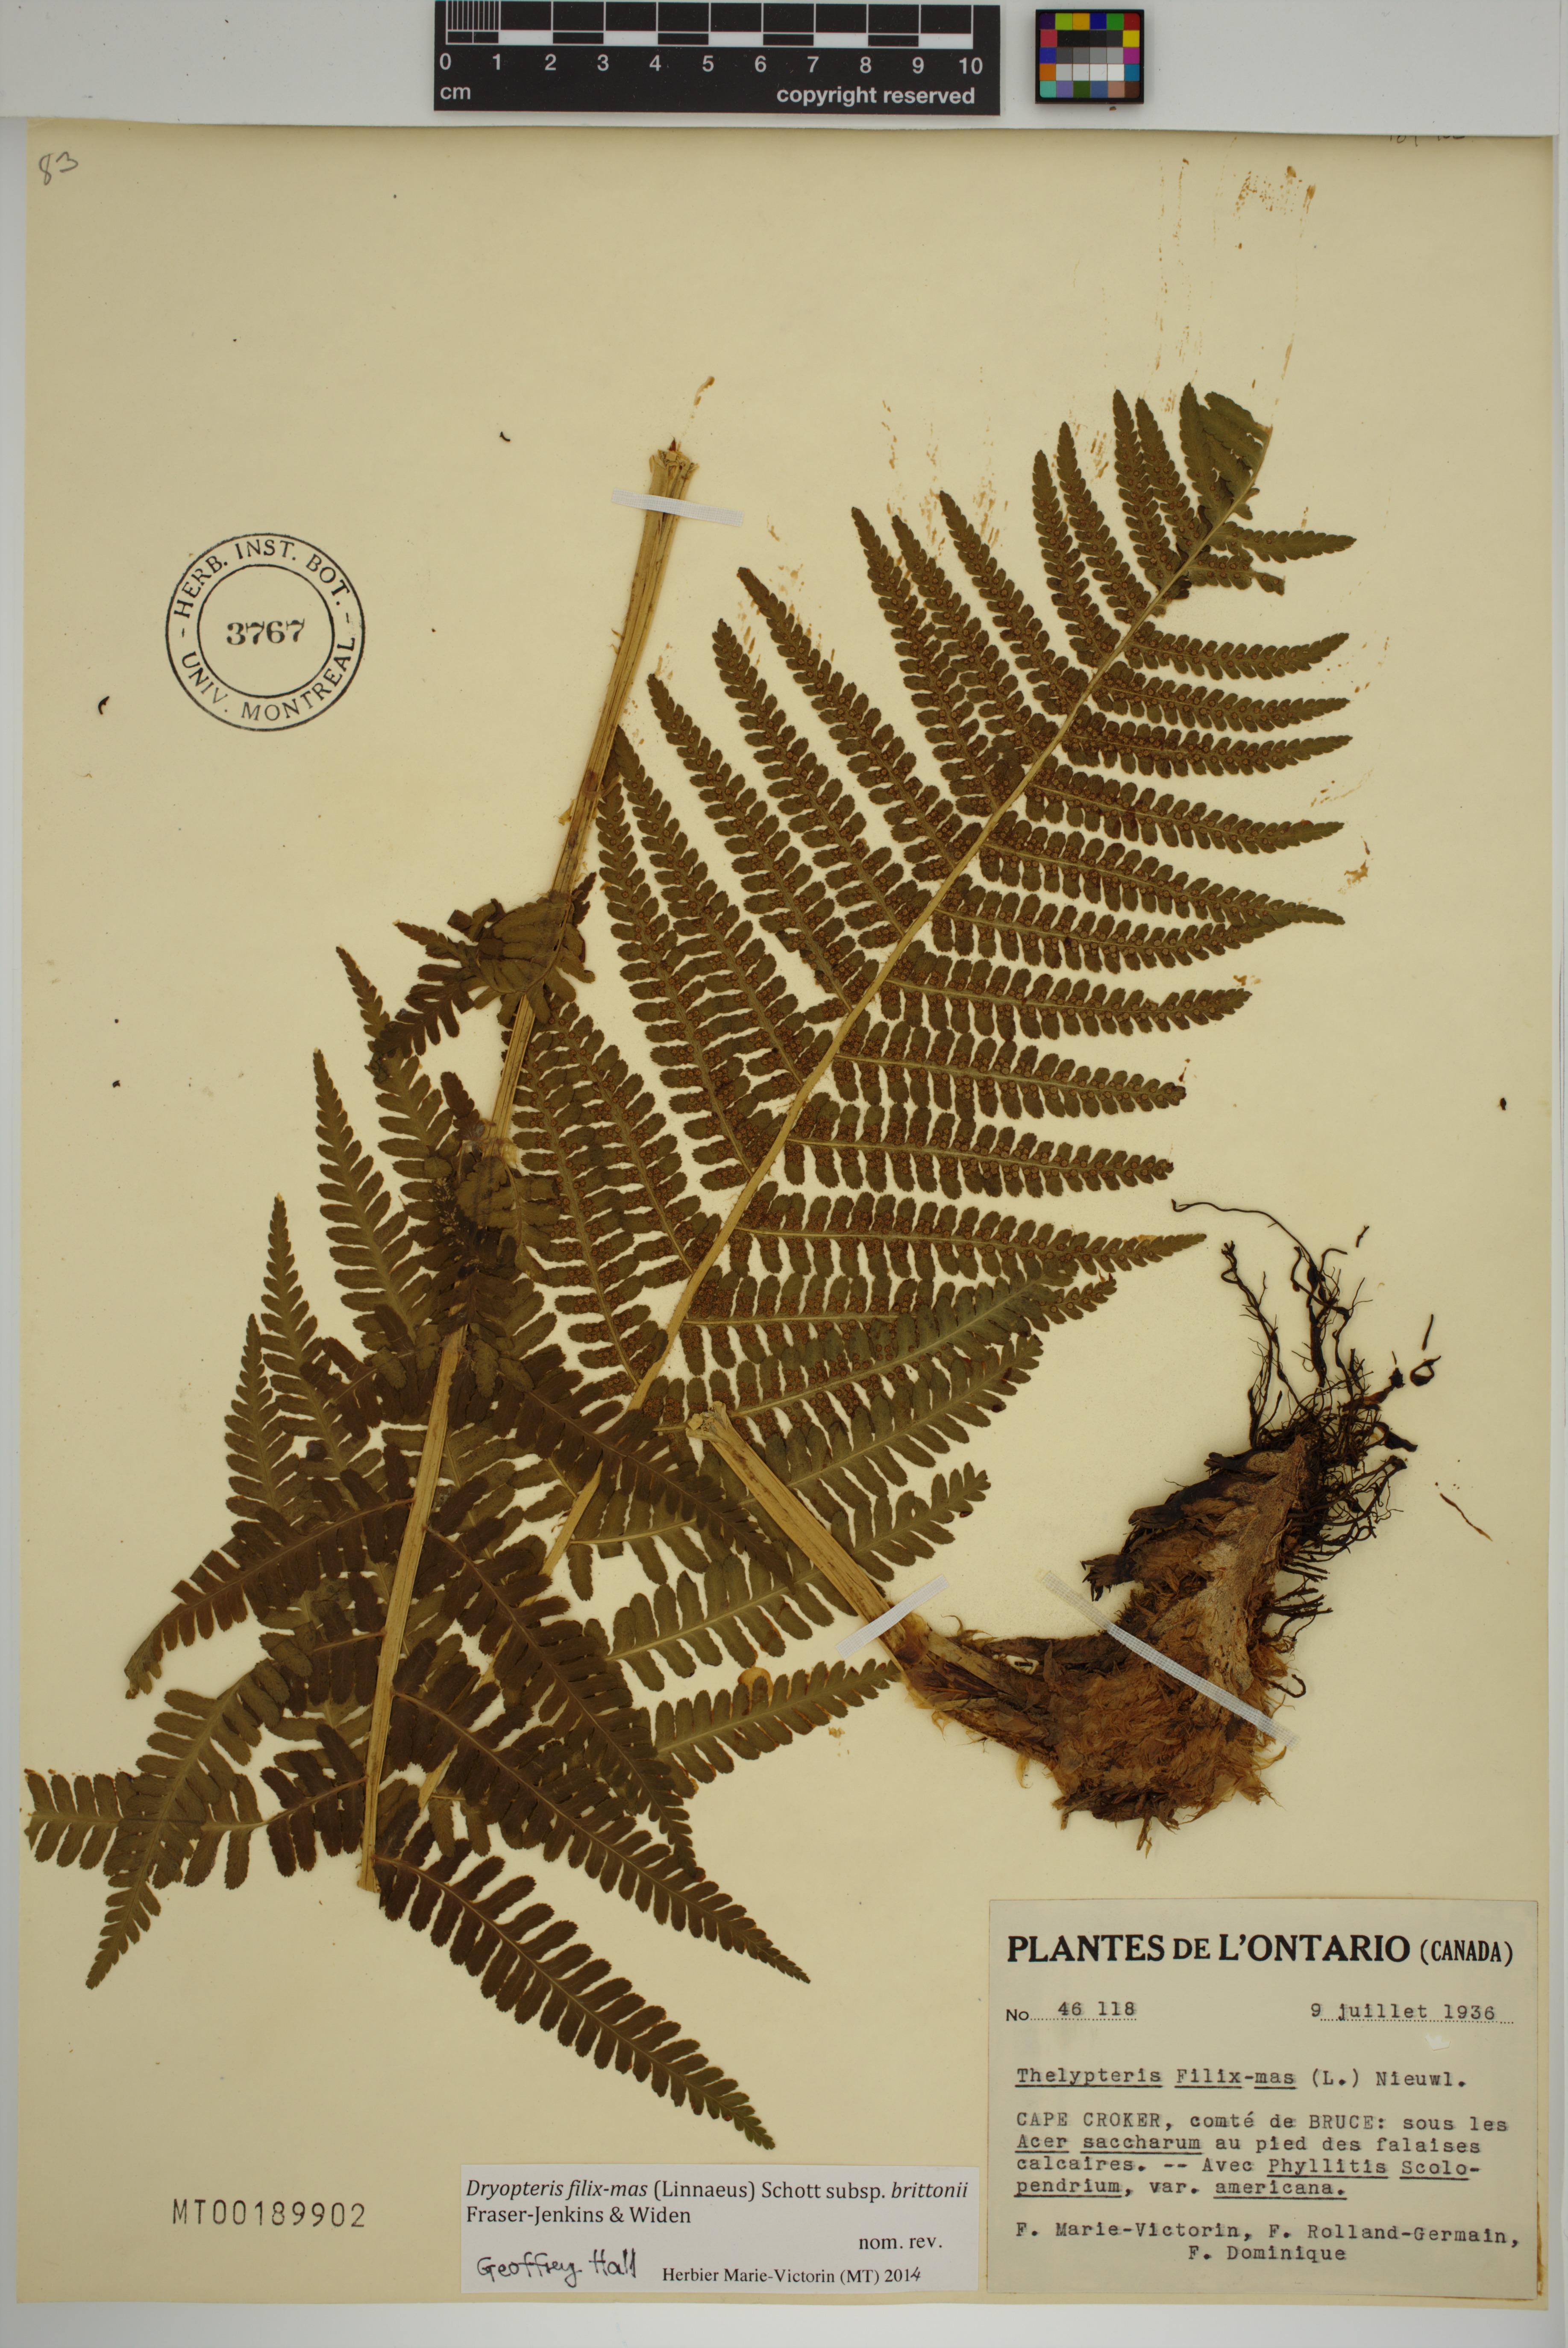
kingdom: Plantae
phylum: Tracheophyta
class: Polypodiopsida
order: Polypodiales
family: Dryopteridaceae
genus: Dryopteris
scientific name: Dryopteris filix-mas
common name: Male fern
